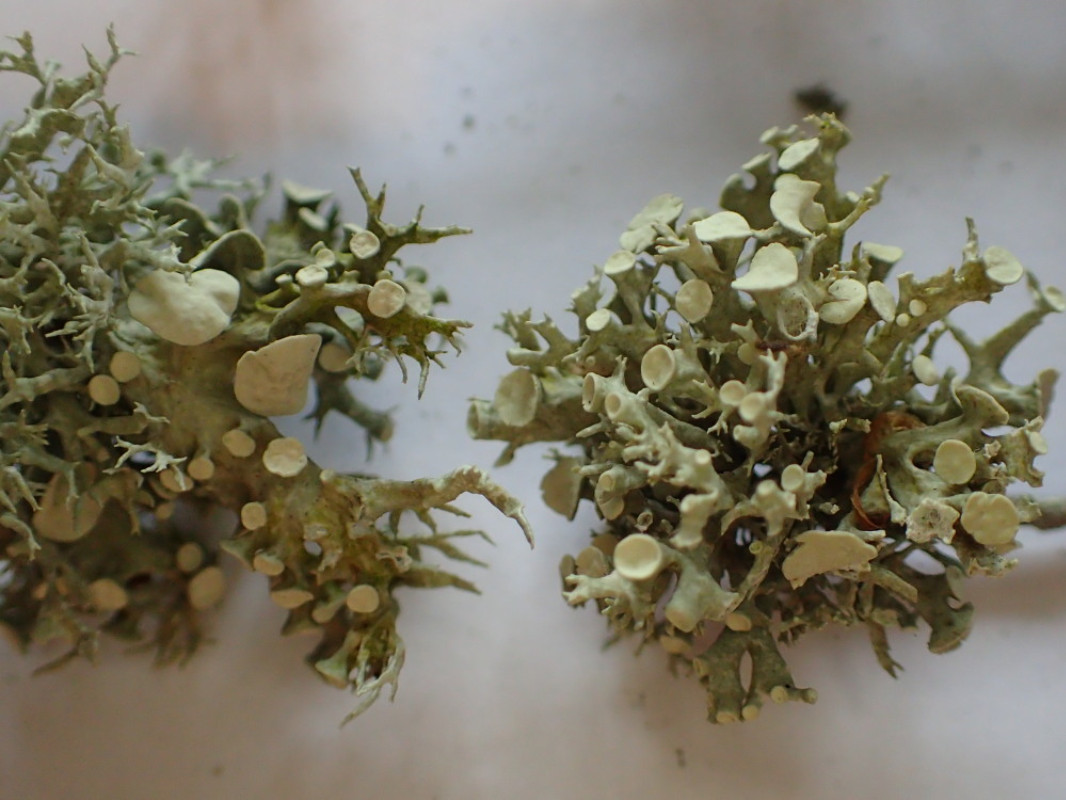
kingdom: Fungi
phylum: Ascomycota
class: Lecanoromycetes
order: Lecanorales
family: Ramalinaceae
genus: Ramalina
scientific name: Ramalina fastigiata
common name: tue-grenlav
